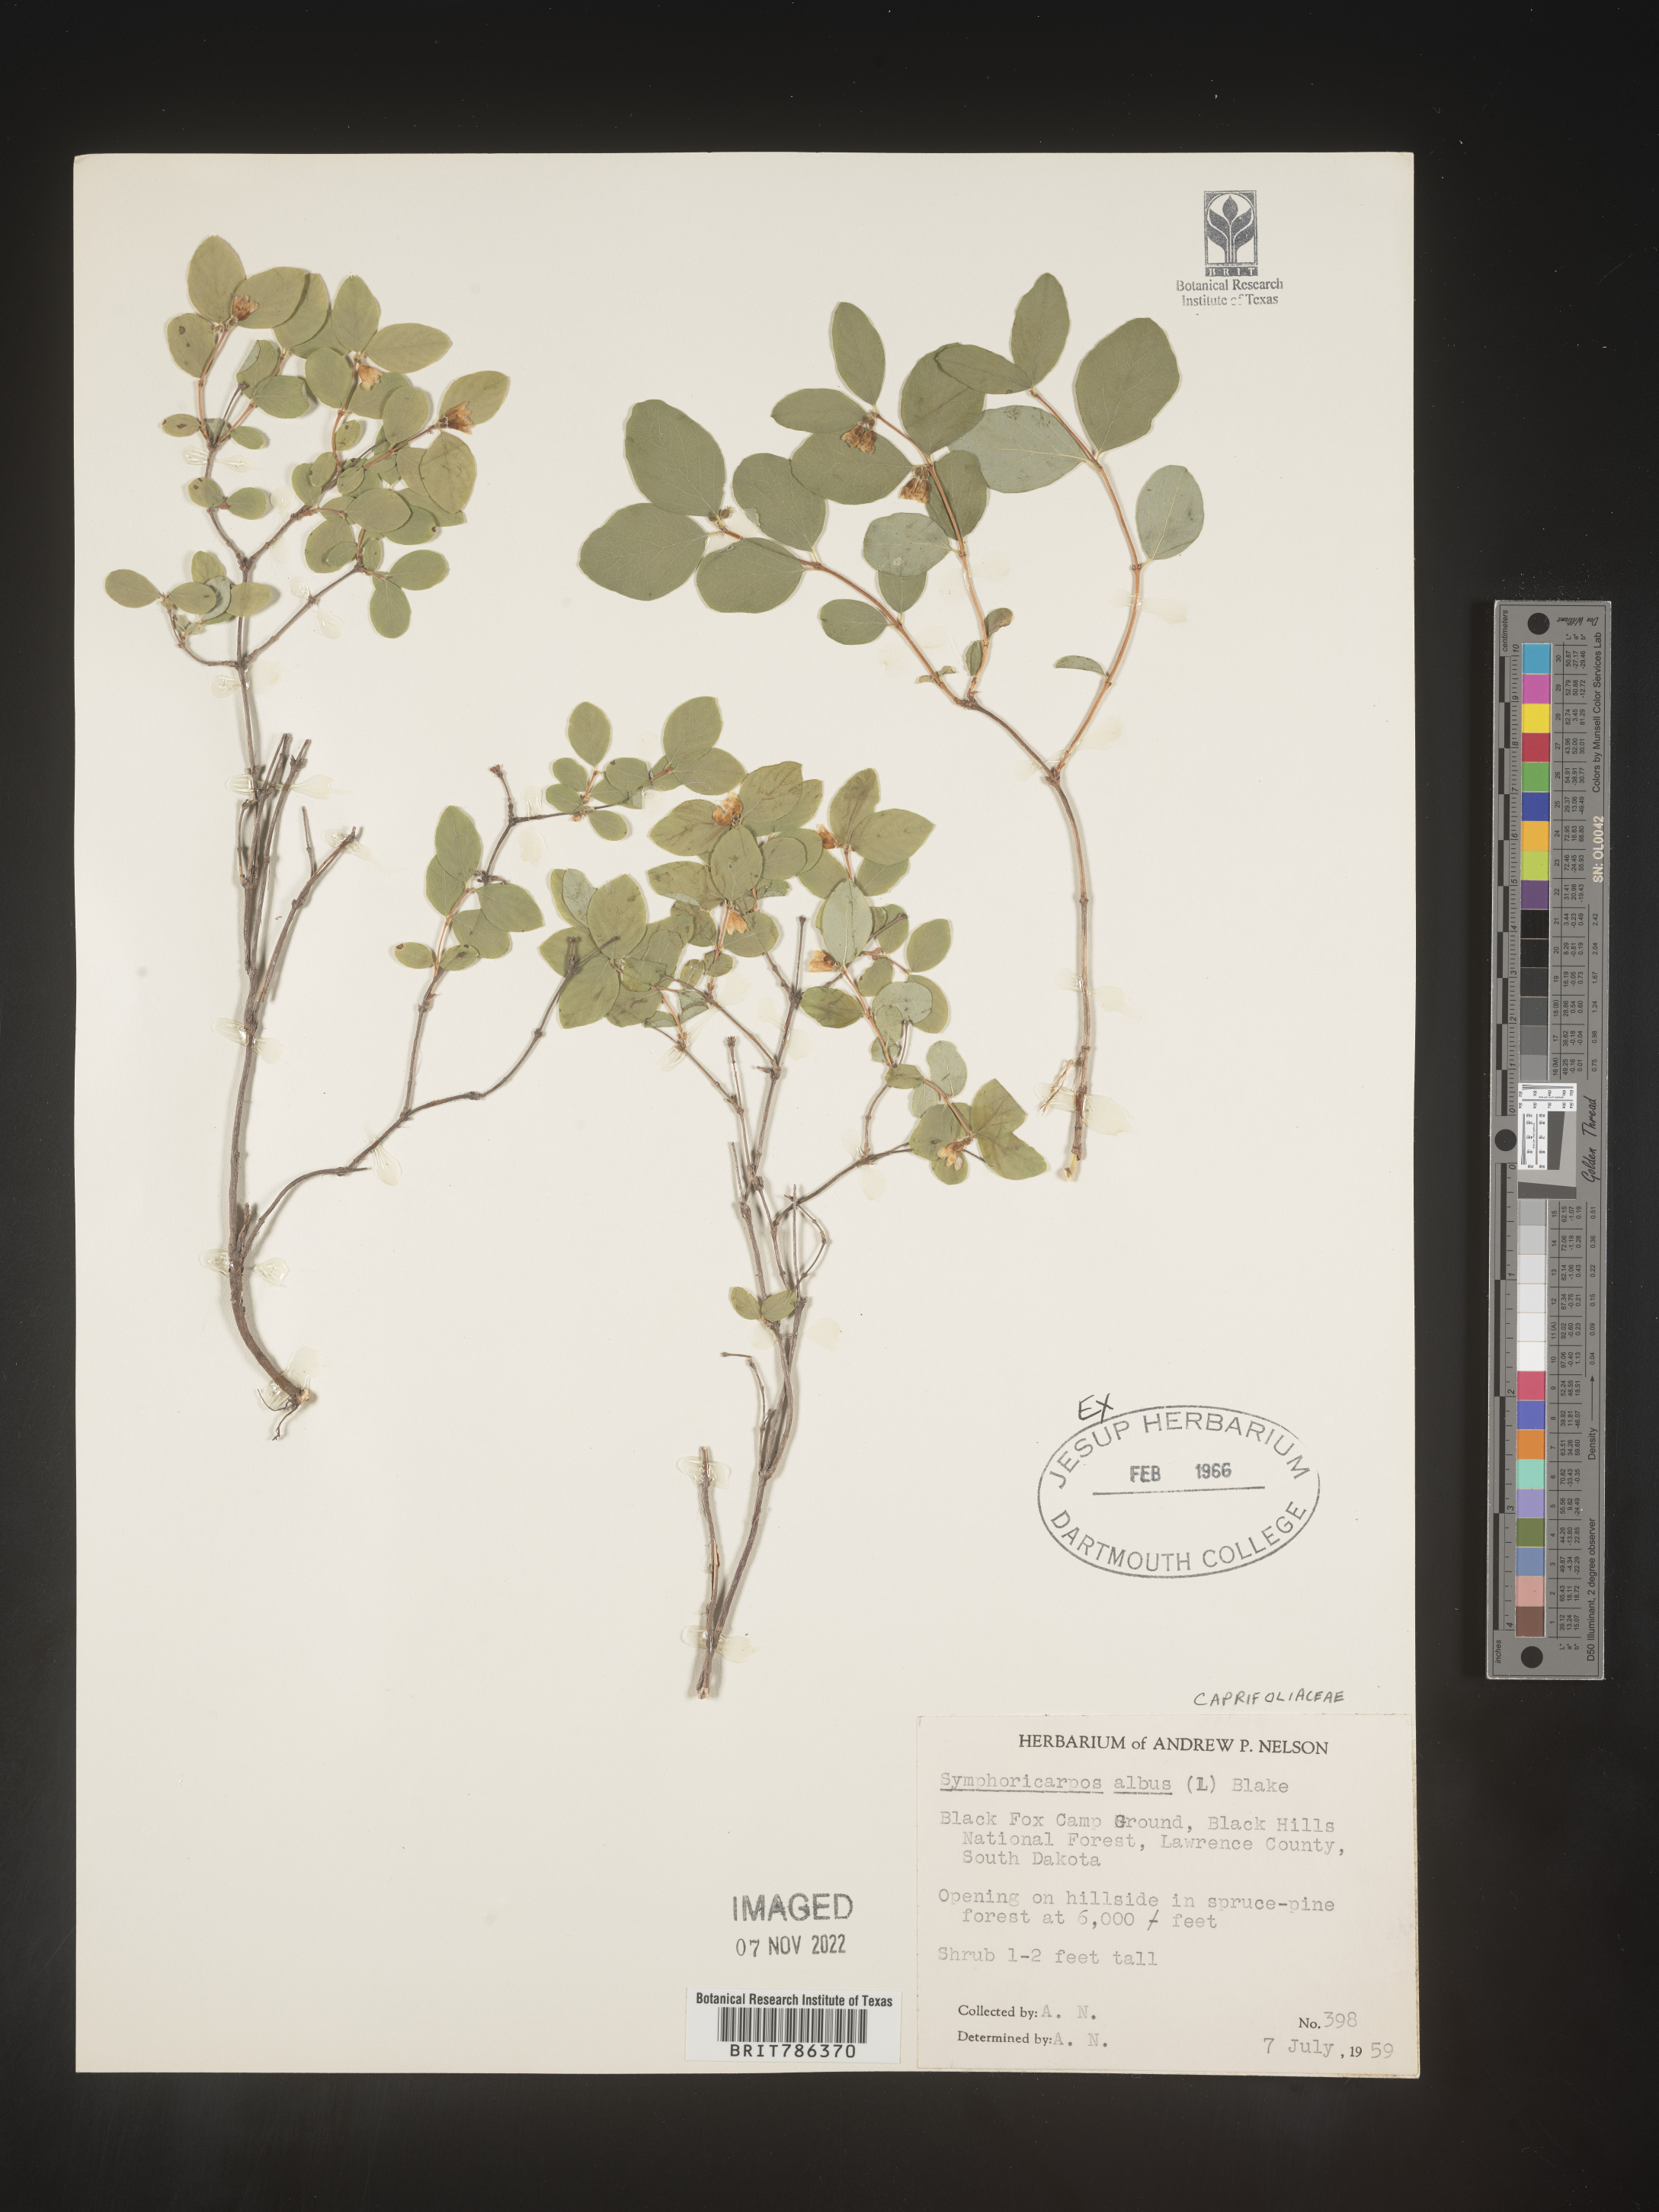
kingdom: Plantae
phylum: Tracheophyta
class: Magnoliopsida
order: Dipsacales
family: Caprifoliaceae
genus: Symphoricarpos
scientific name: Symphoricarpos albus
